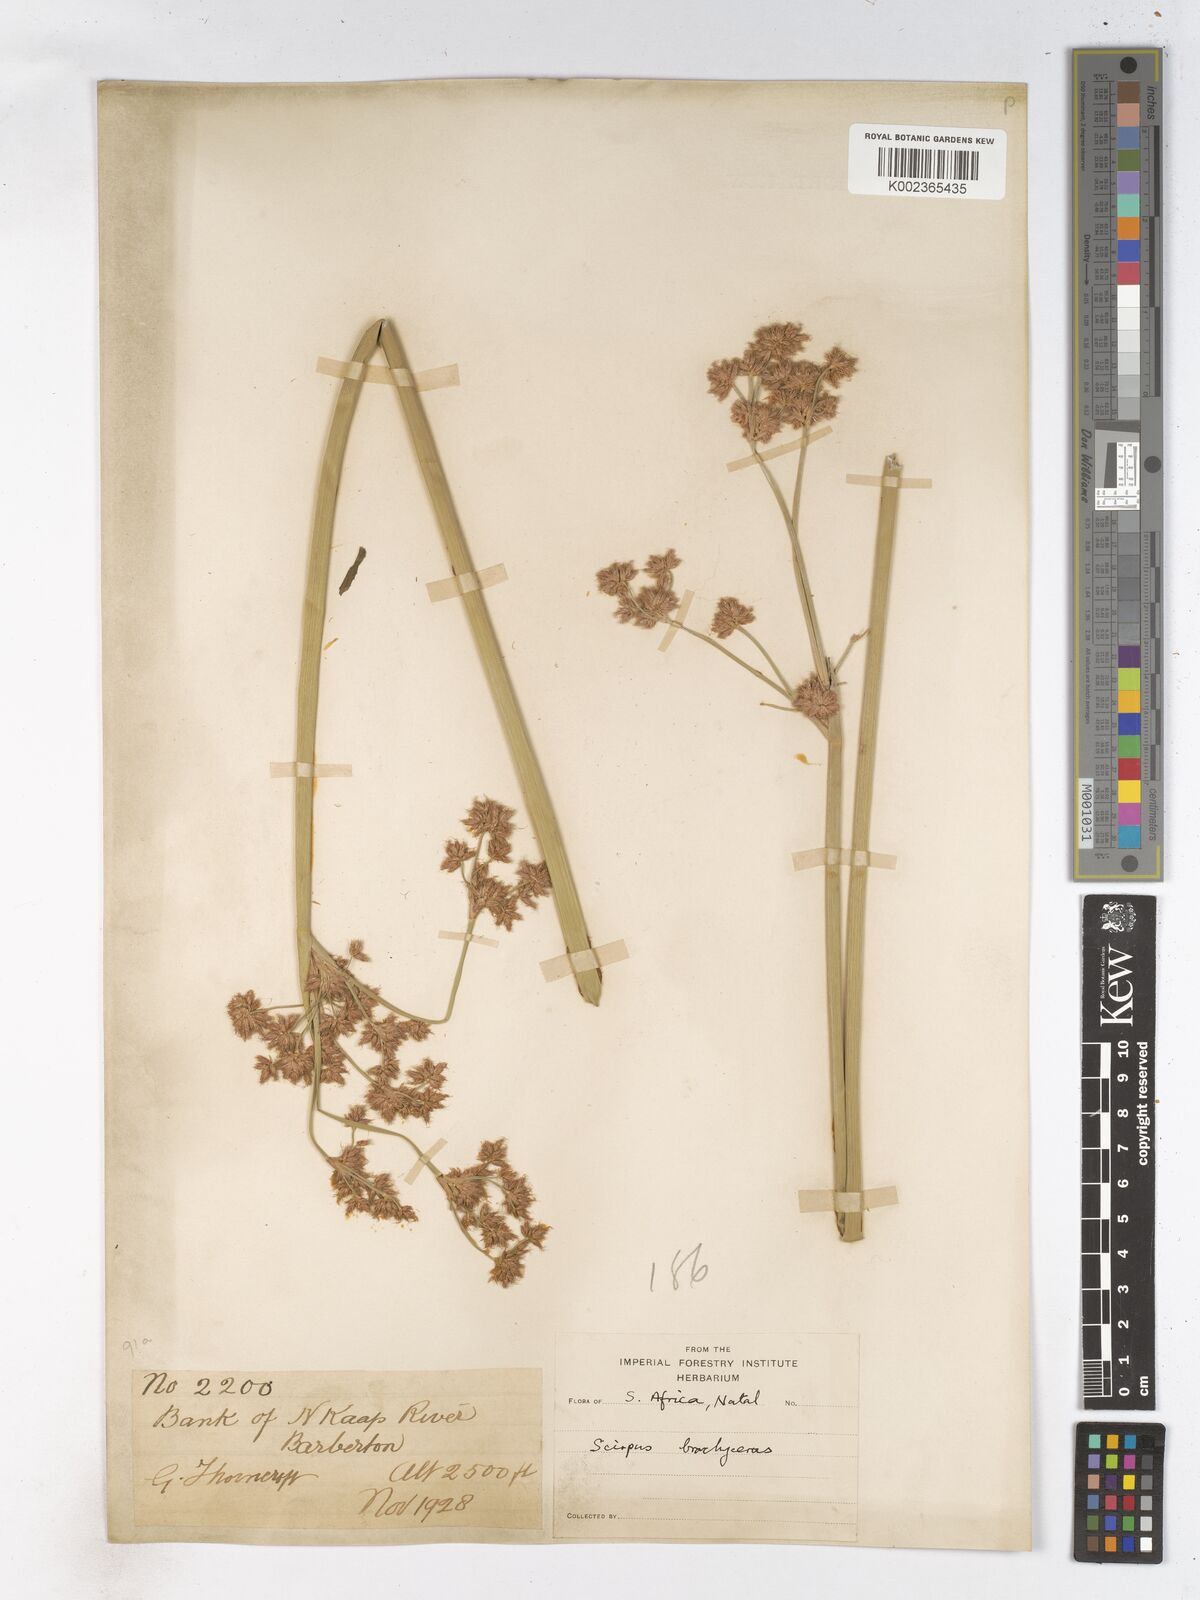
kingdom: Plantae
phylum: Tracheophyta
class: Liliopsida
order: Poales
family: Cyperaceae
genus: Schoenoplectiella
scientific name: Schoenoplectiella brachyceras
